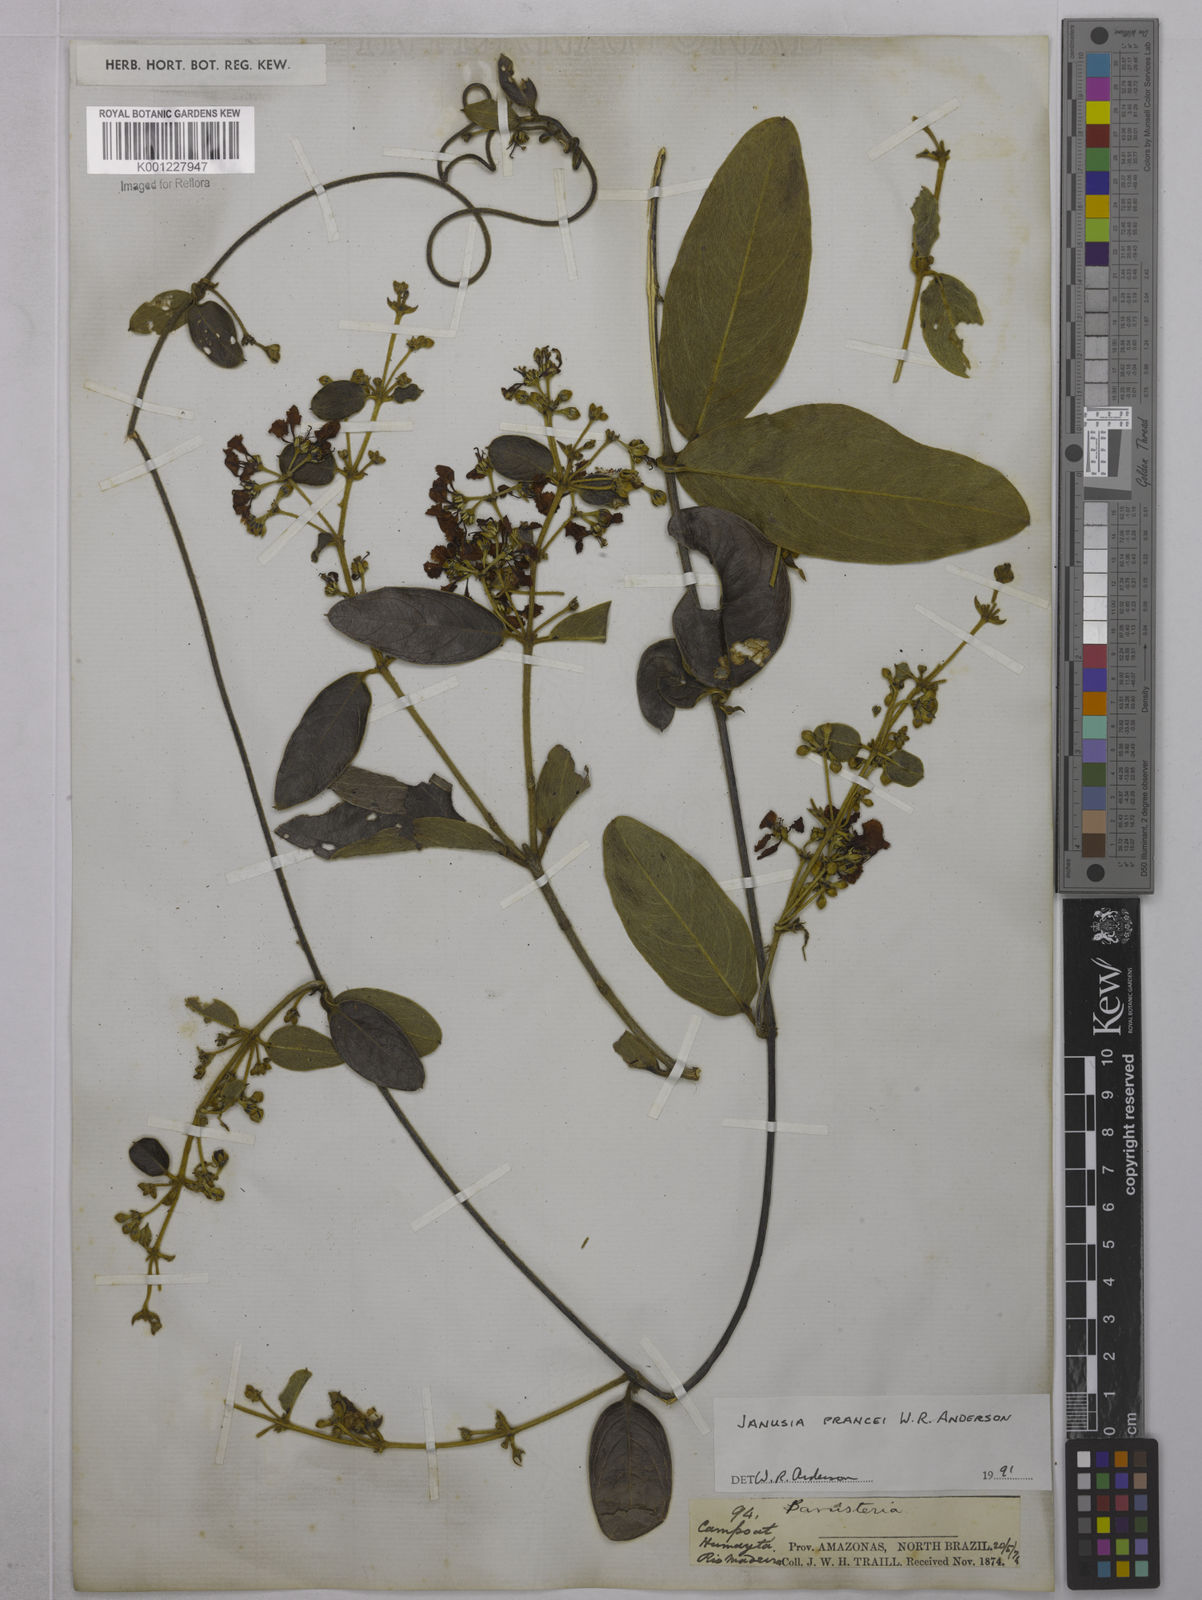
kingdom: Plantae
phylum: Tracheophyta
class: Magnoliopsida
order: Malpighiales
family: Malpighiaceae
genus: Janusia
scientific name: Janusia prancei
